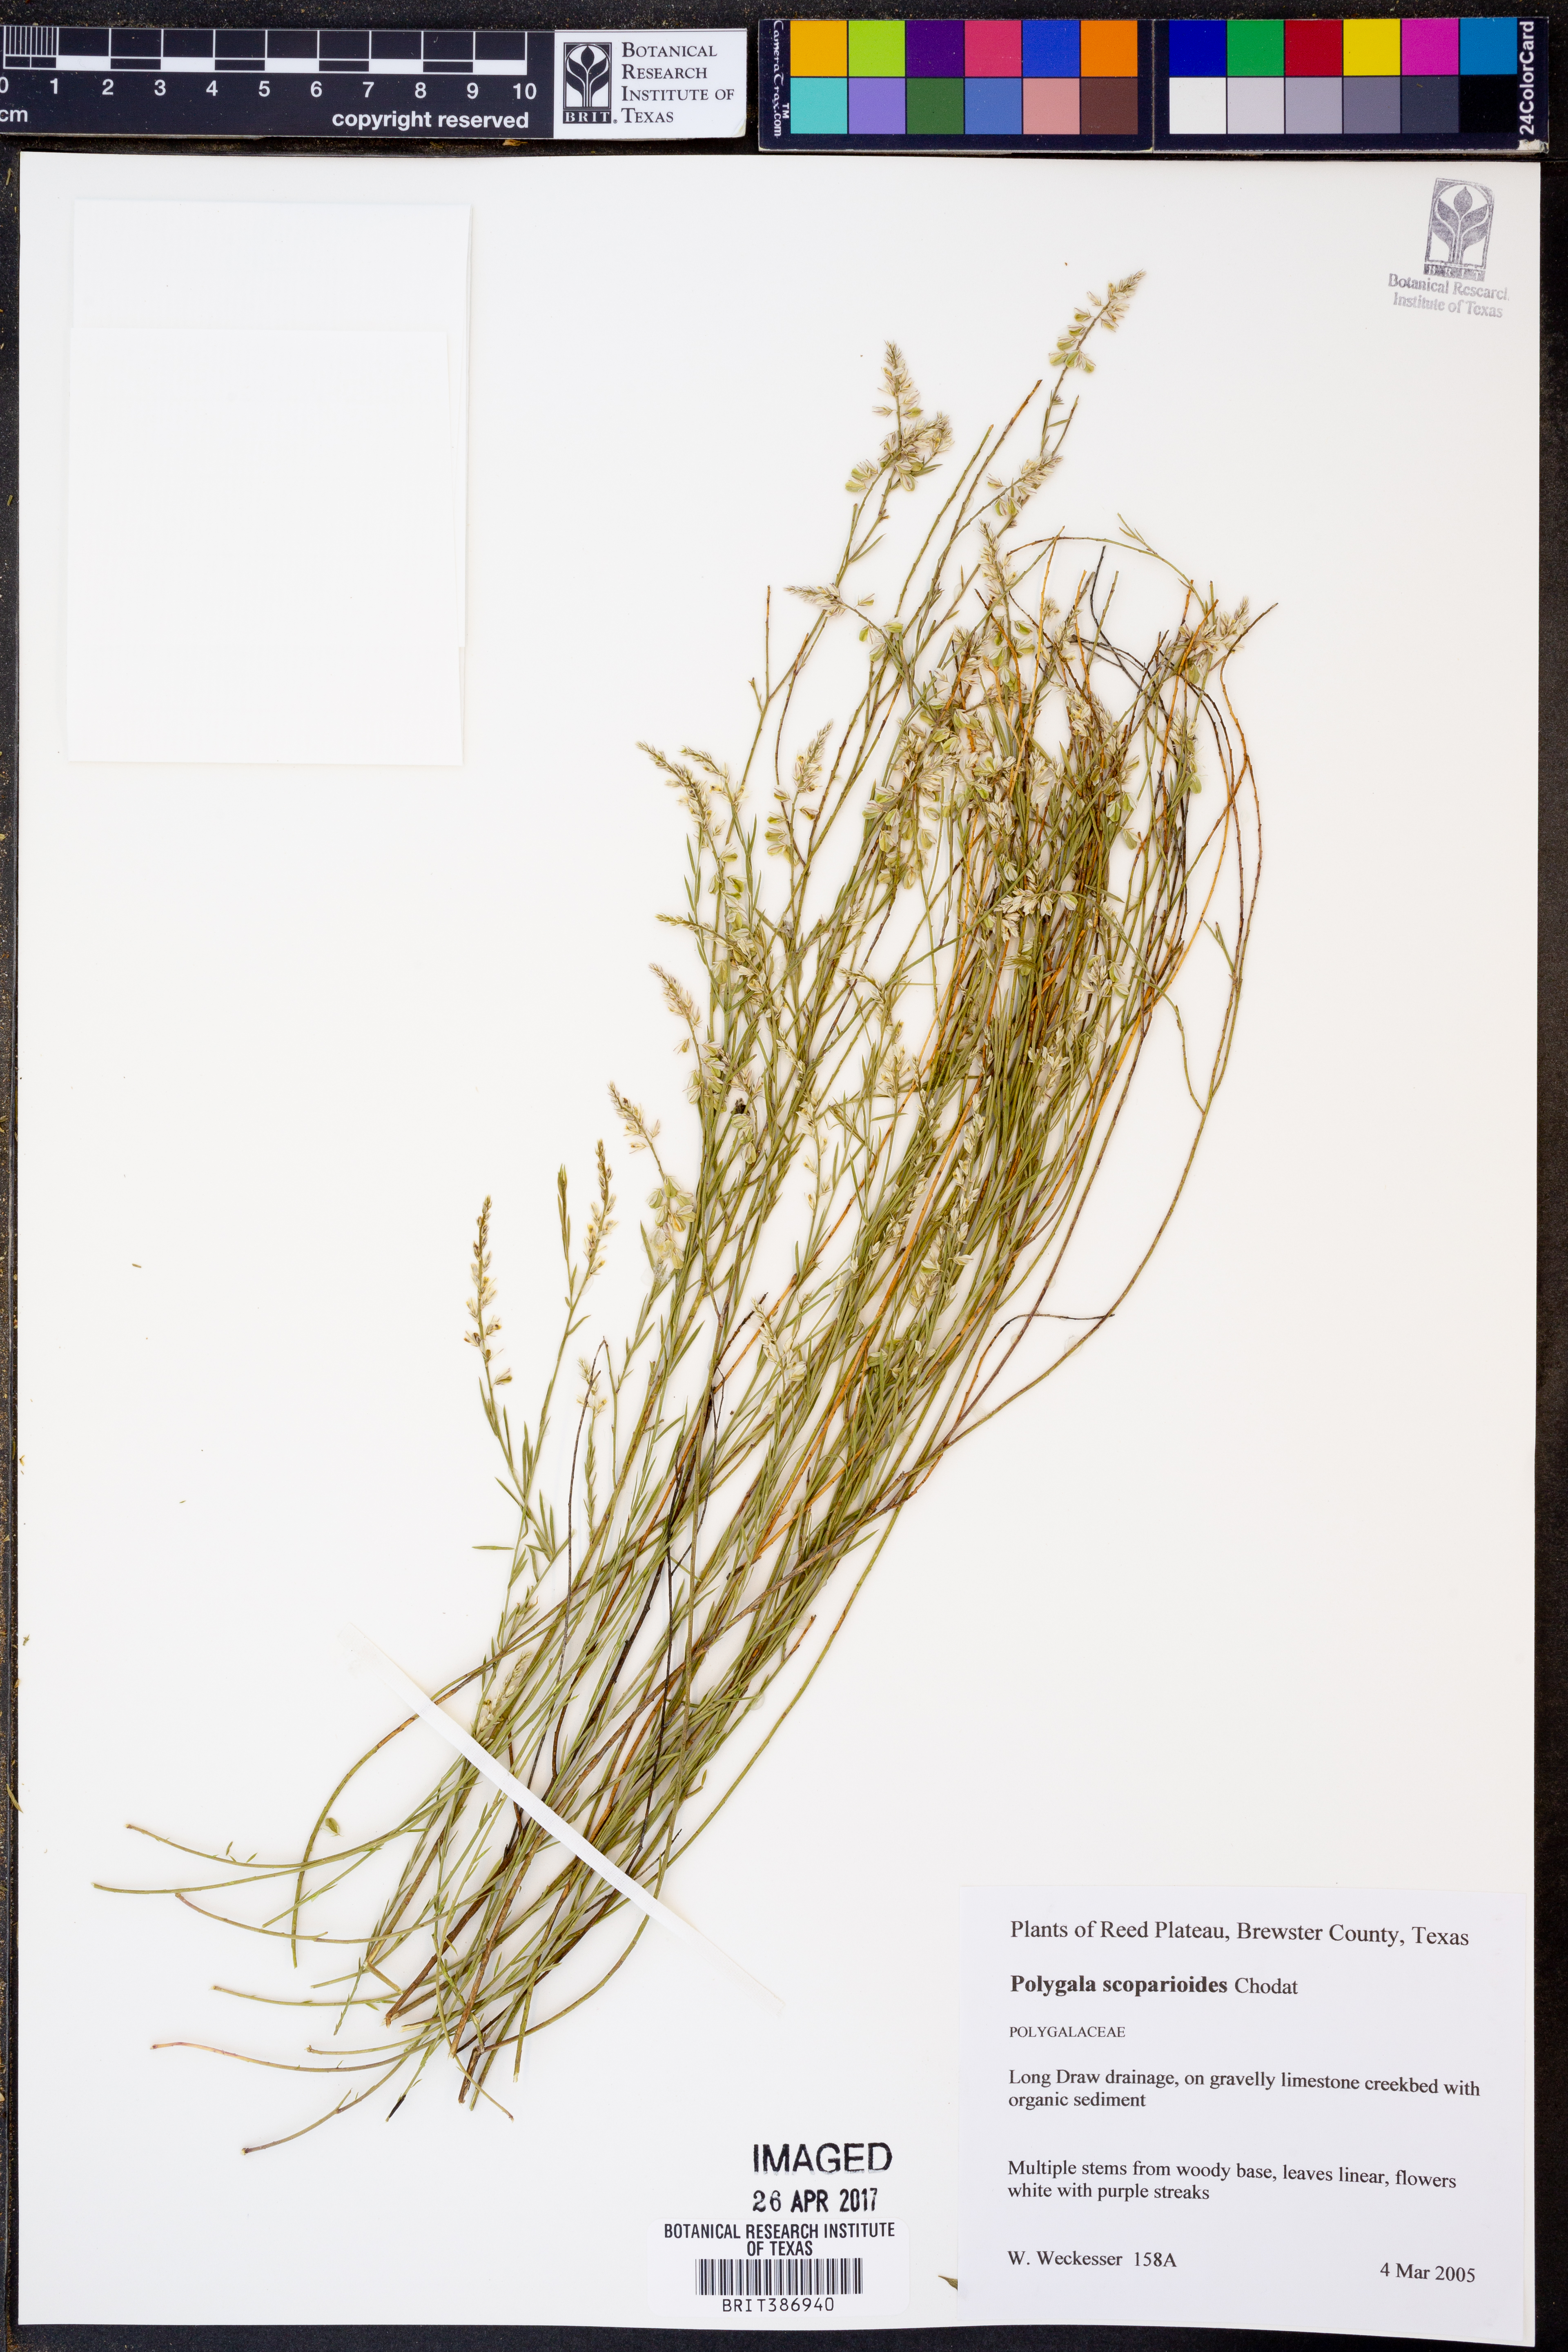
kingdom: Plantae
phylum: Tracheophyta
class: Magnoliopsida
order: Fabales
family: Polygalaceae
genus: Polygala
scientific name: Polygala scoparioides
